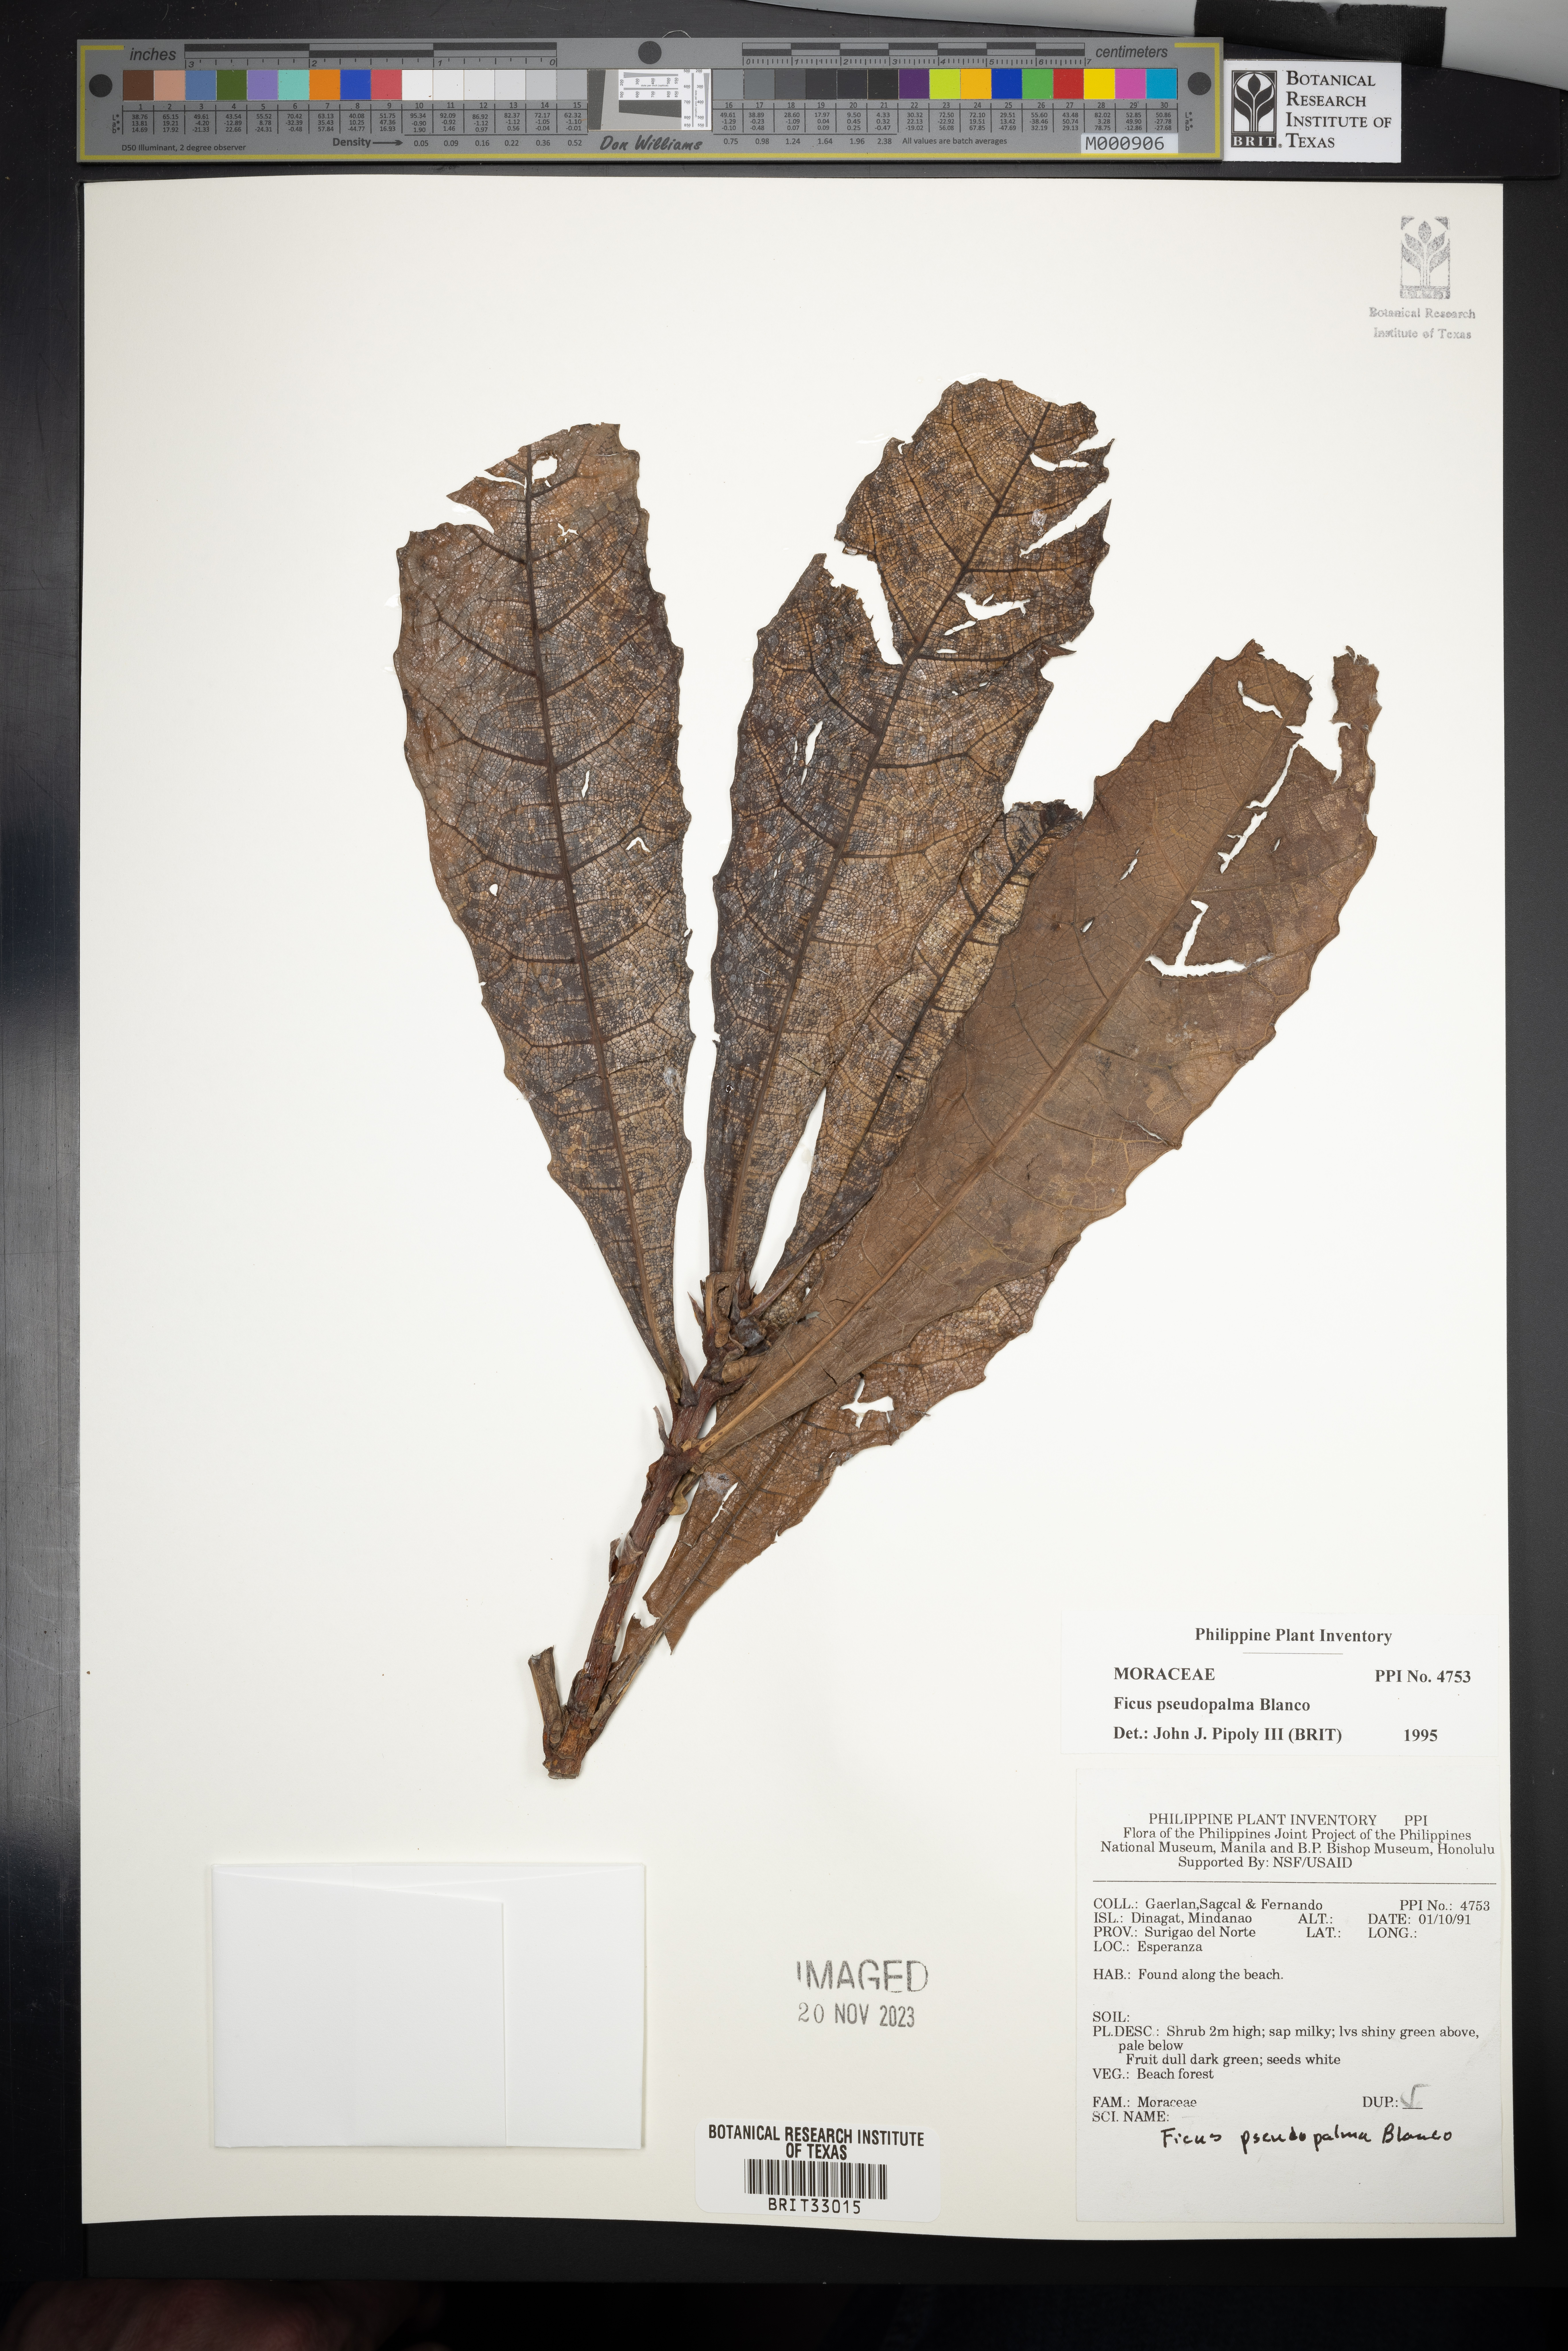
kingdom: Plantae
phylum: Tracheophyta
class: Magnoliopsida
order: Rosales
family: Moraceae
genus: Ficus
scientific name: Ficus pseudopalma
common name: Palm-like fig
